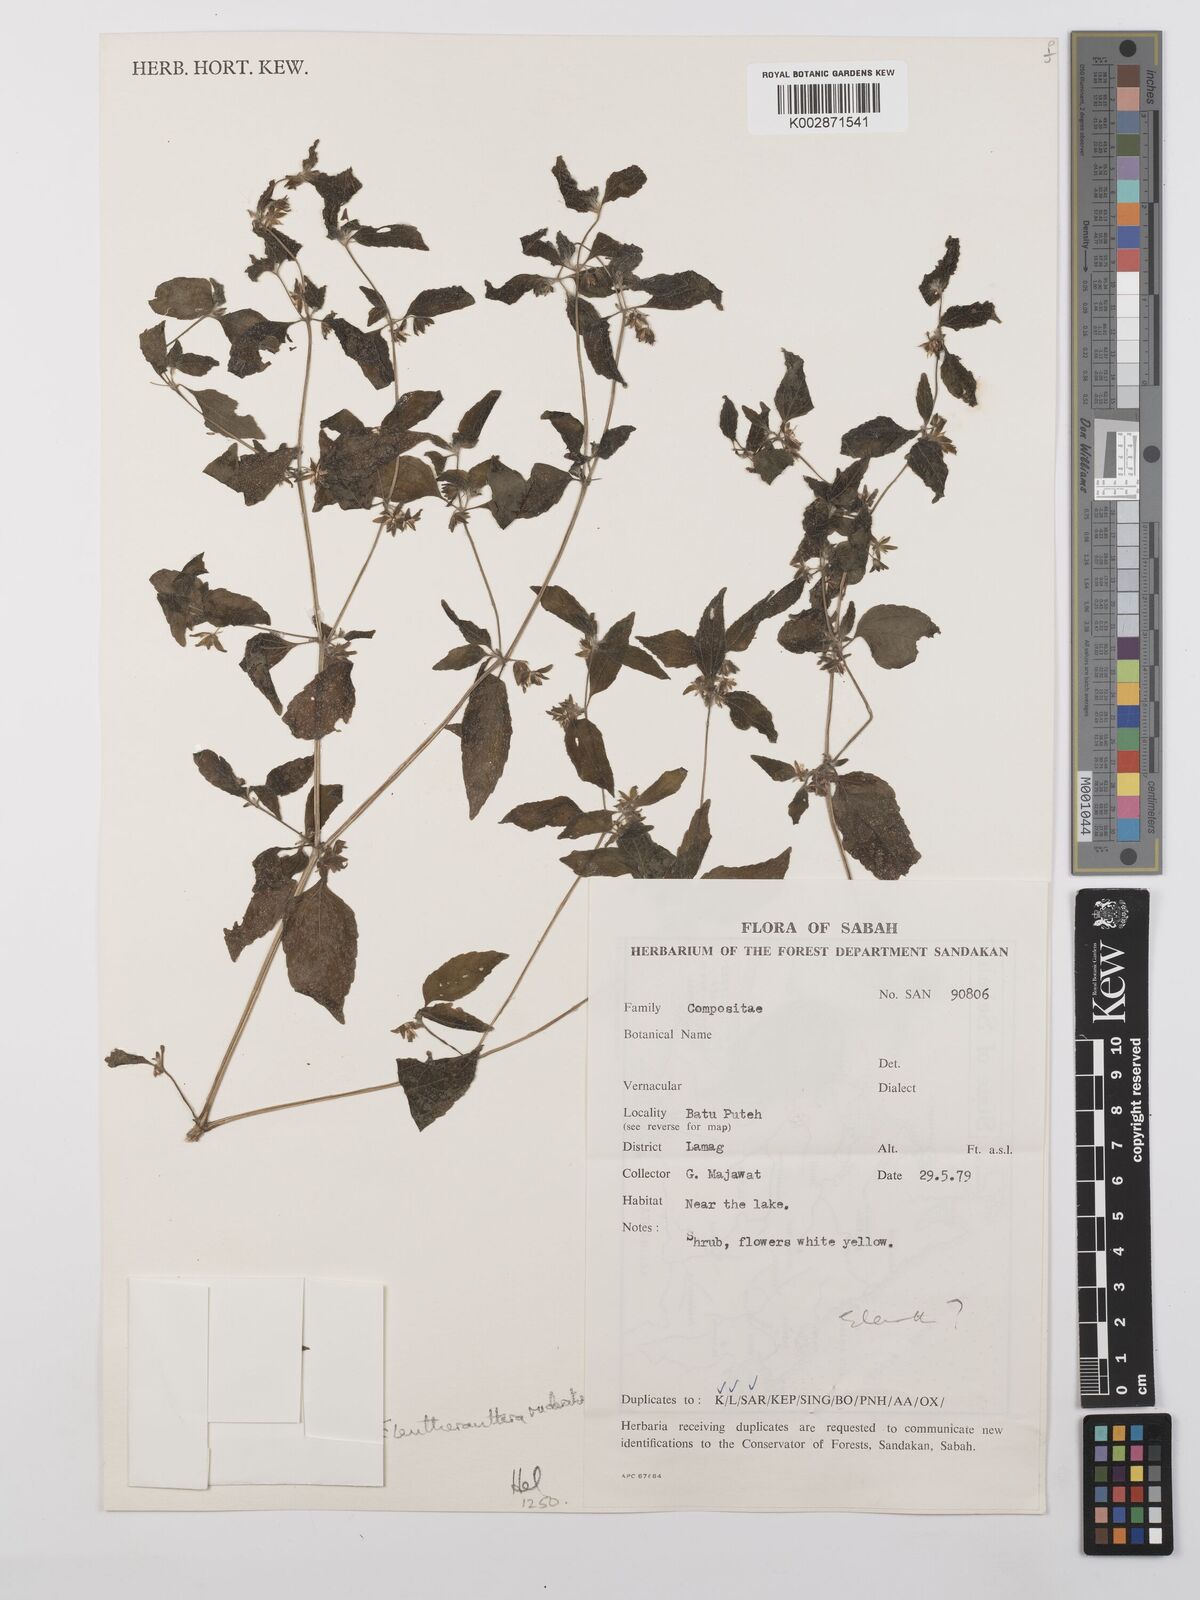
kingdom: Plantae
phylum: Tracheophyta
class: Magnoliopsida
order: Asterales
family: Asteraceae
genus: Eleutheranthera
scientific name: Eleutheranthera ruderalis
